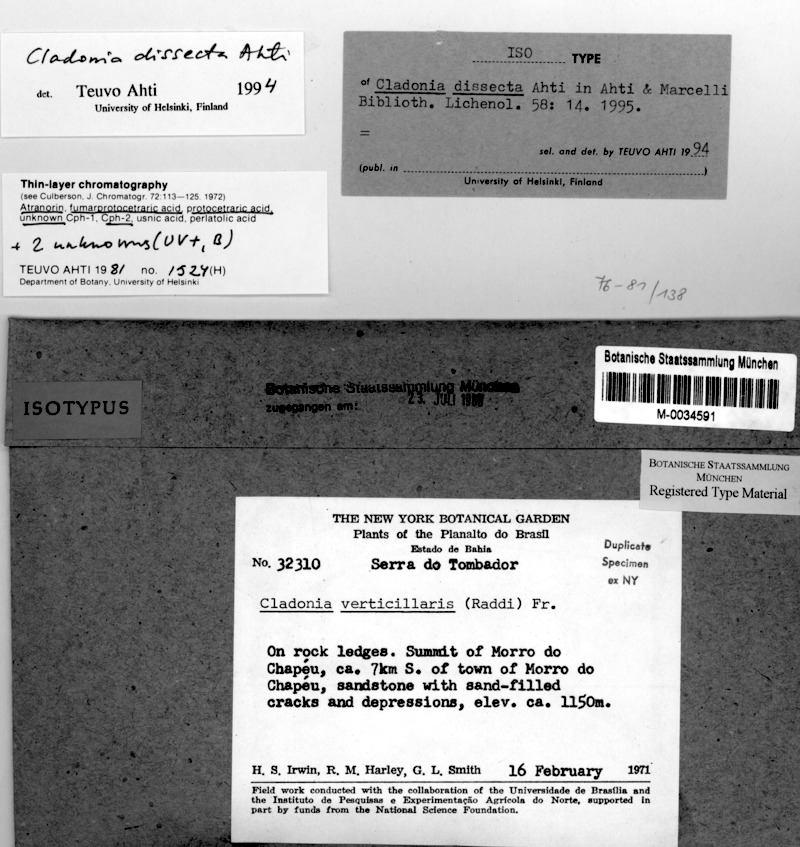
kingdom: Fungi
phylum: Ascomycota
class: Lecanoromycetes
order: Lecanorales
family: Cladoniaceae
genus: Cladonia
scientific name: Cladonia dissecta
